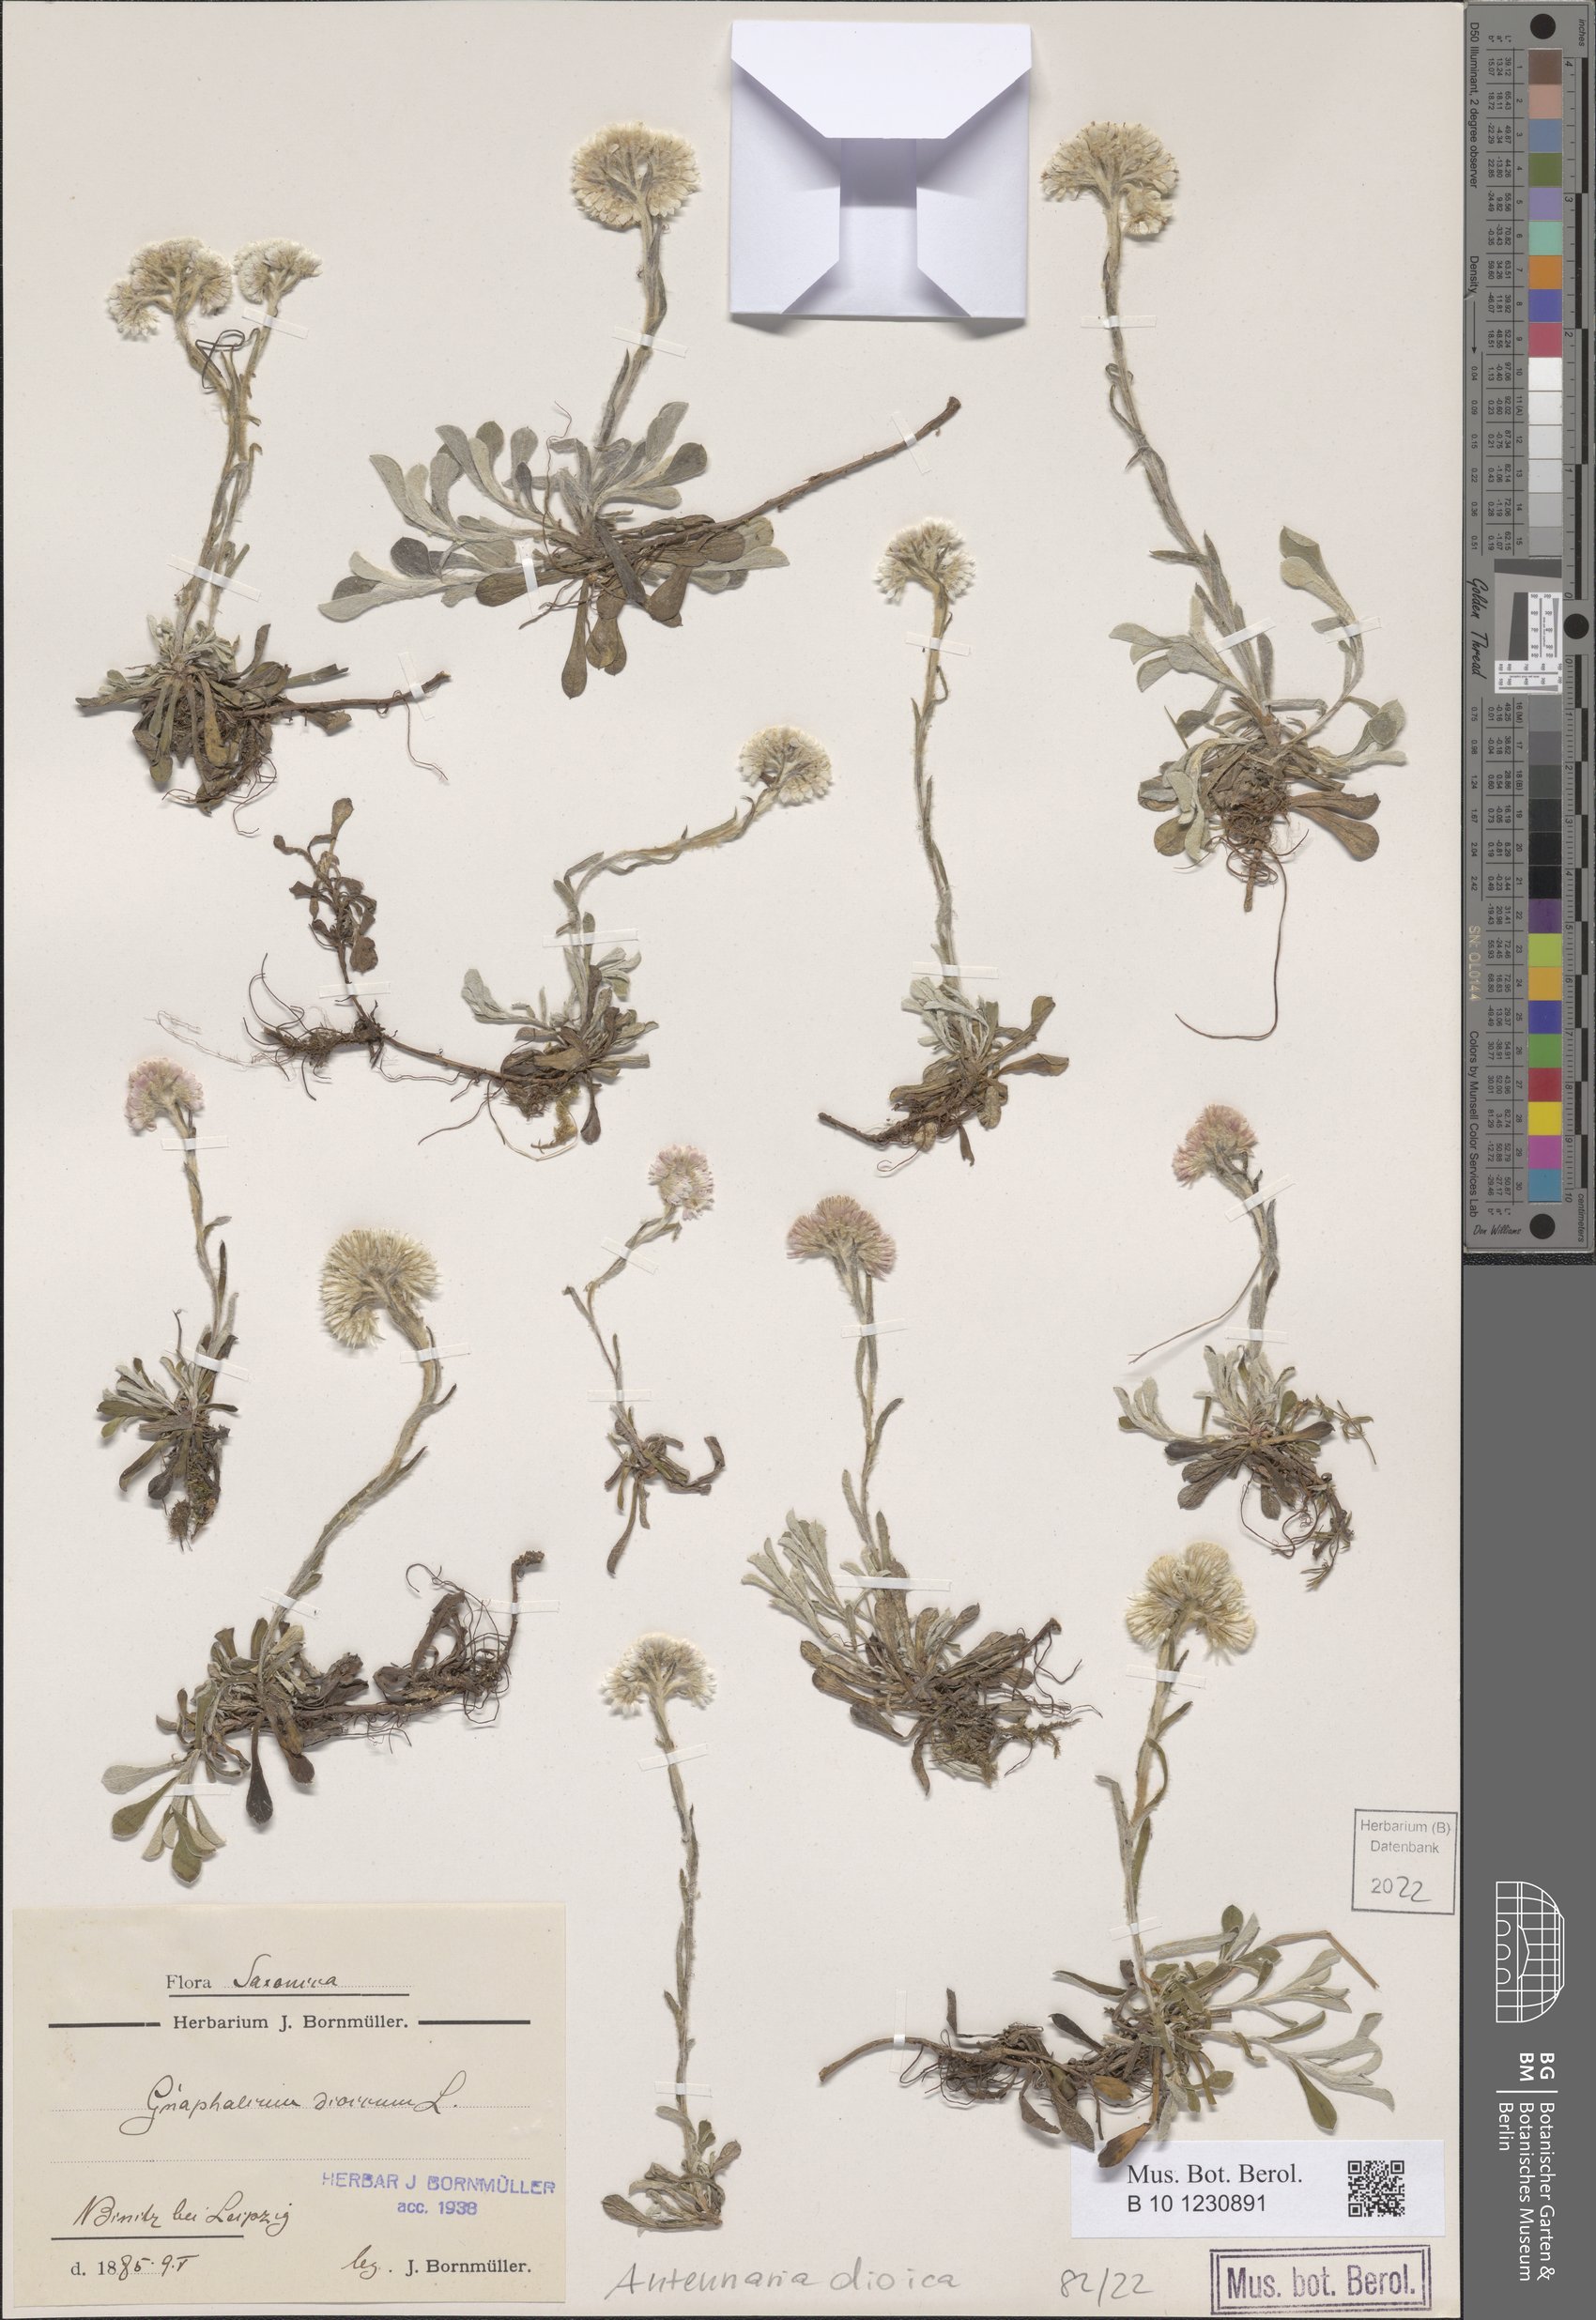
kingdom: Plantae
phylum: Tracheophyta
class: Magnoliopsida
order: Asterales
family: Asteraceae
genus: Antennaria
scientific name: Antennaria dioica
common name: Mountain everlasting
